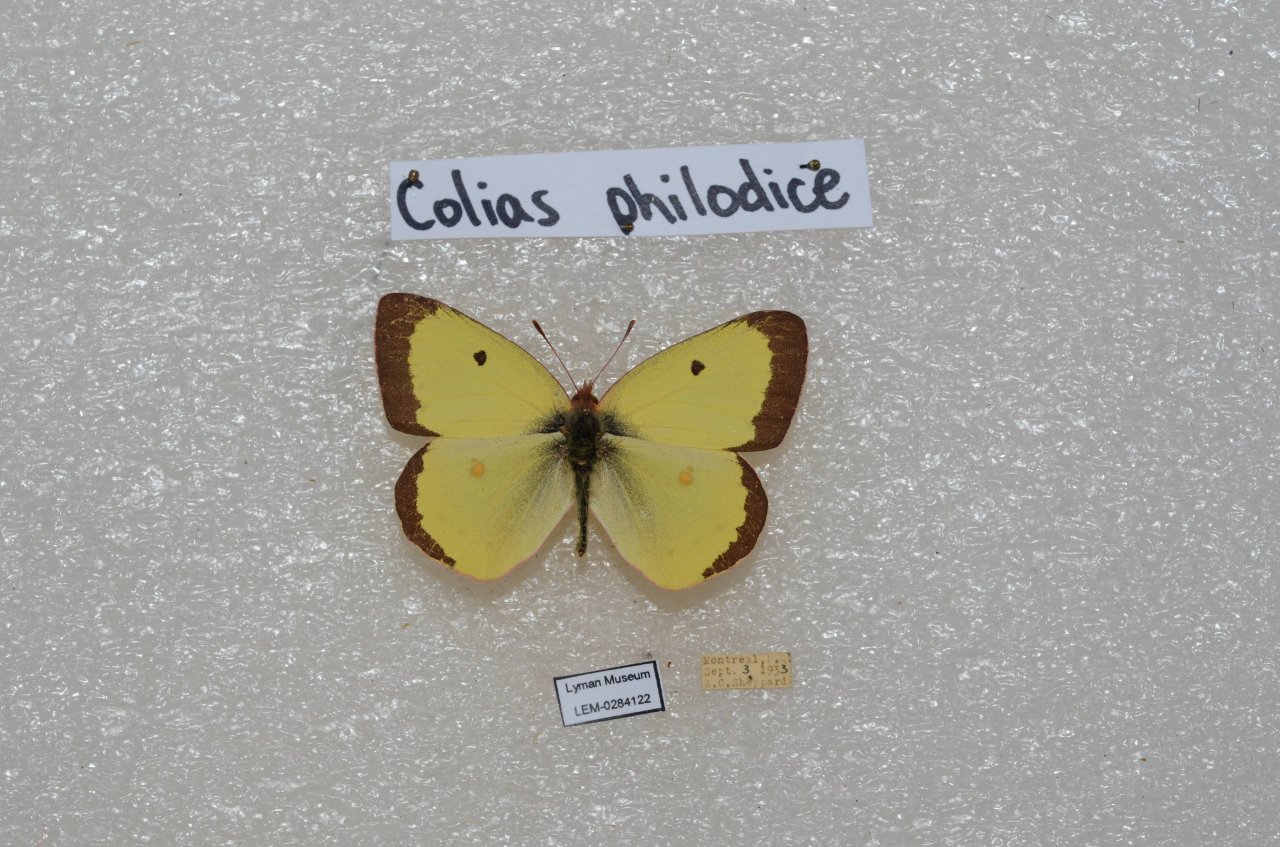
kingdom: Animalia
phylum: Arthropoda
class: Insecta
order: Lepidoptera
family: Pieridae
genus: Colias
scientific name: Colias philodice
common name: Clouded Sulphur
